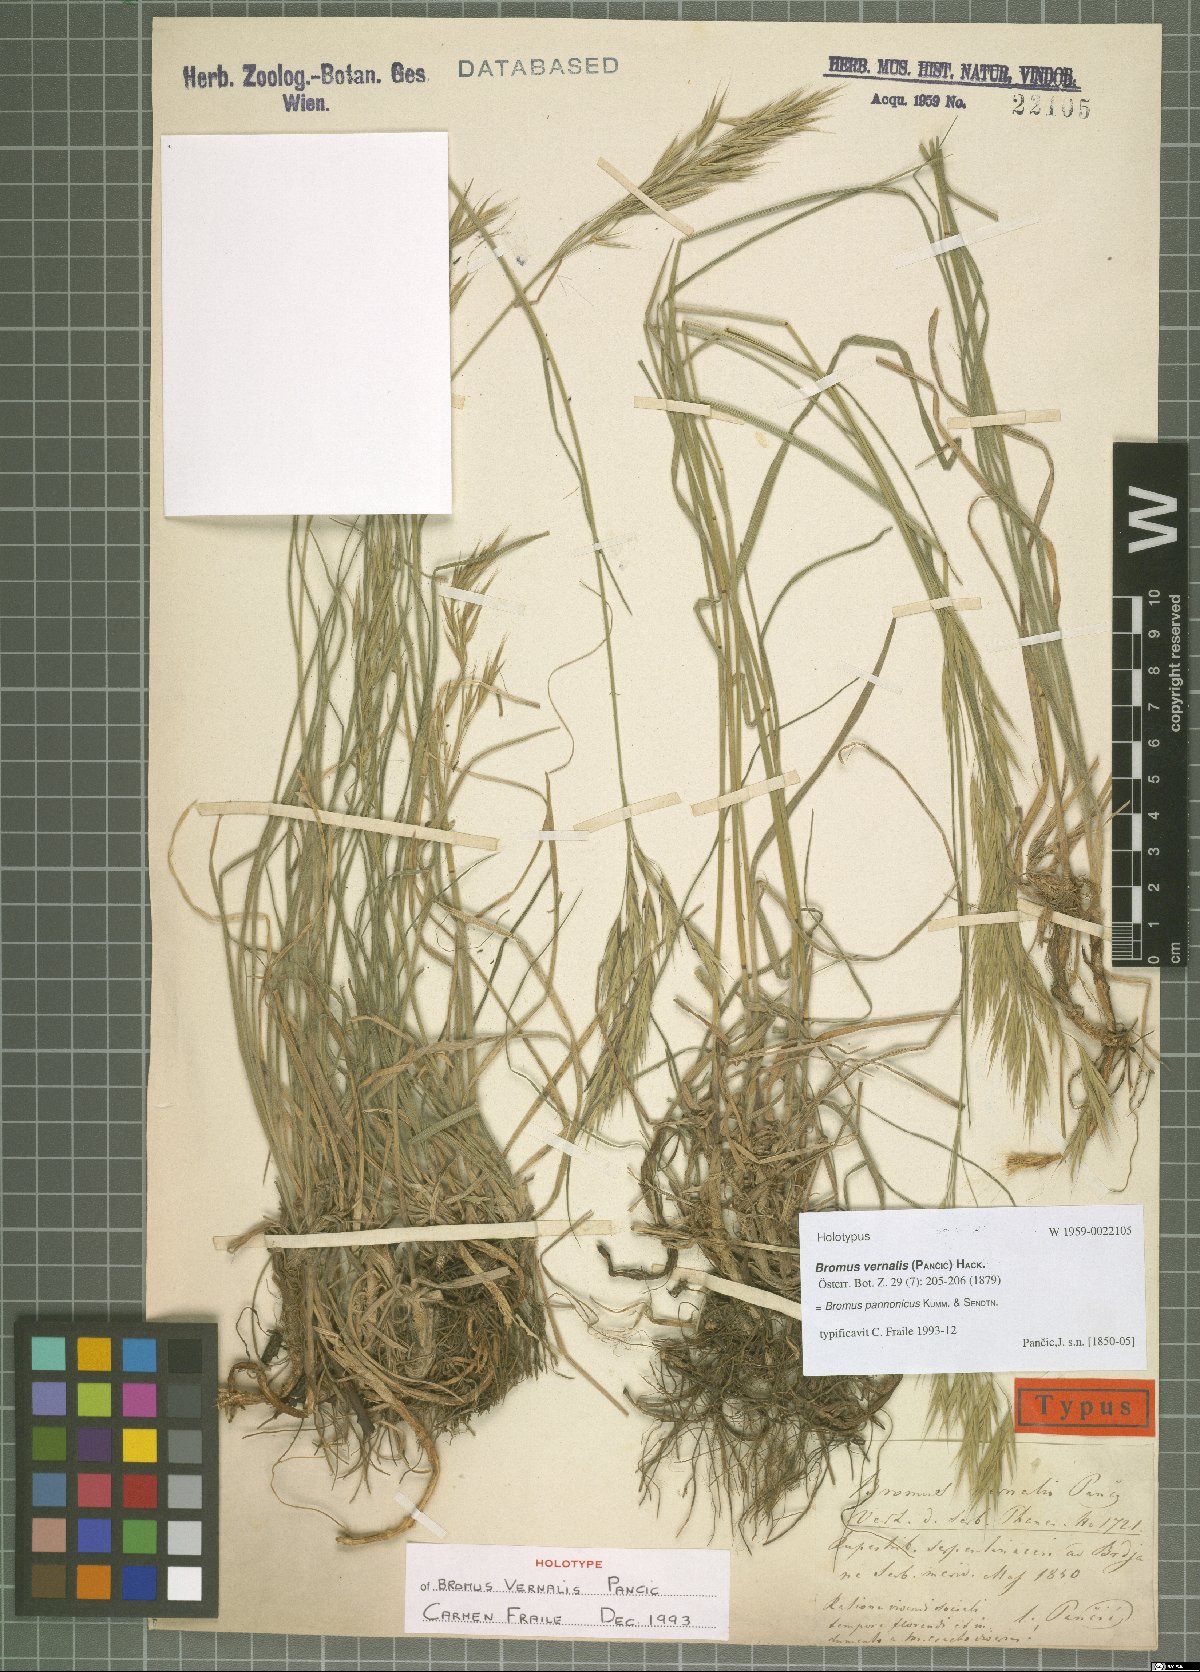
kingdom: Plantae
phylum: Tracheophyta
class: Liliopsida
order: Poales
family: Poaceae
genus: Bromus
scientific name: Bromus pannonicus
